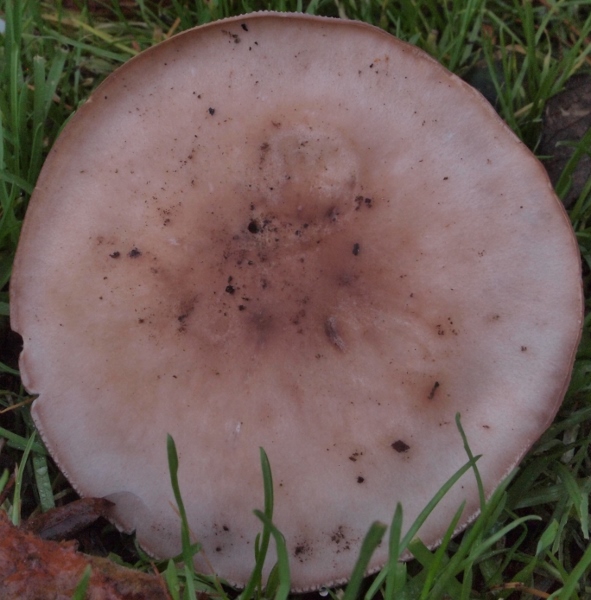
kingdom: Fungi
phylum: Basidiomycota
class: Agaricomycetes
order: Agaricales
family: Tricholomataceae
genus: Lepista
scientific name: Lepista nuda
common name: violet hekseringshat
